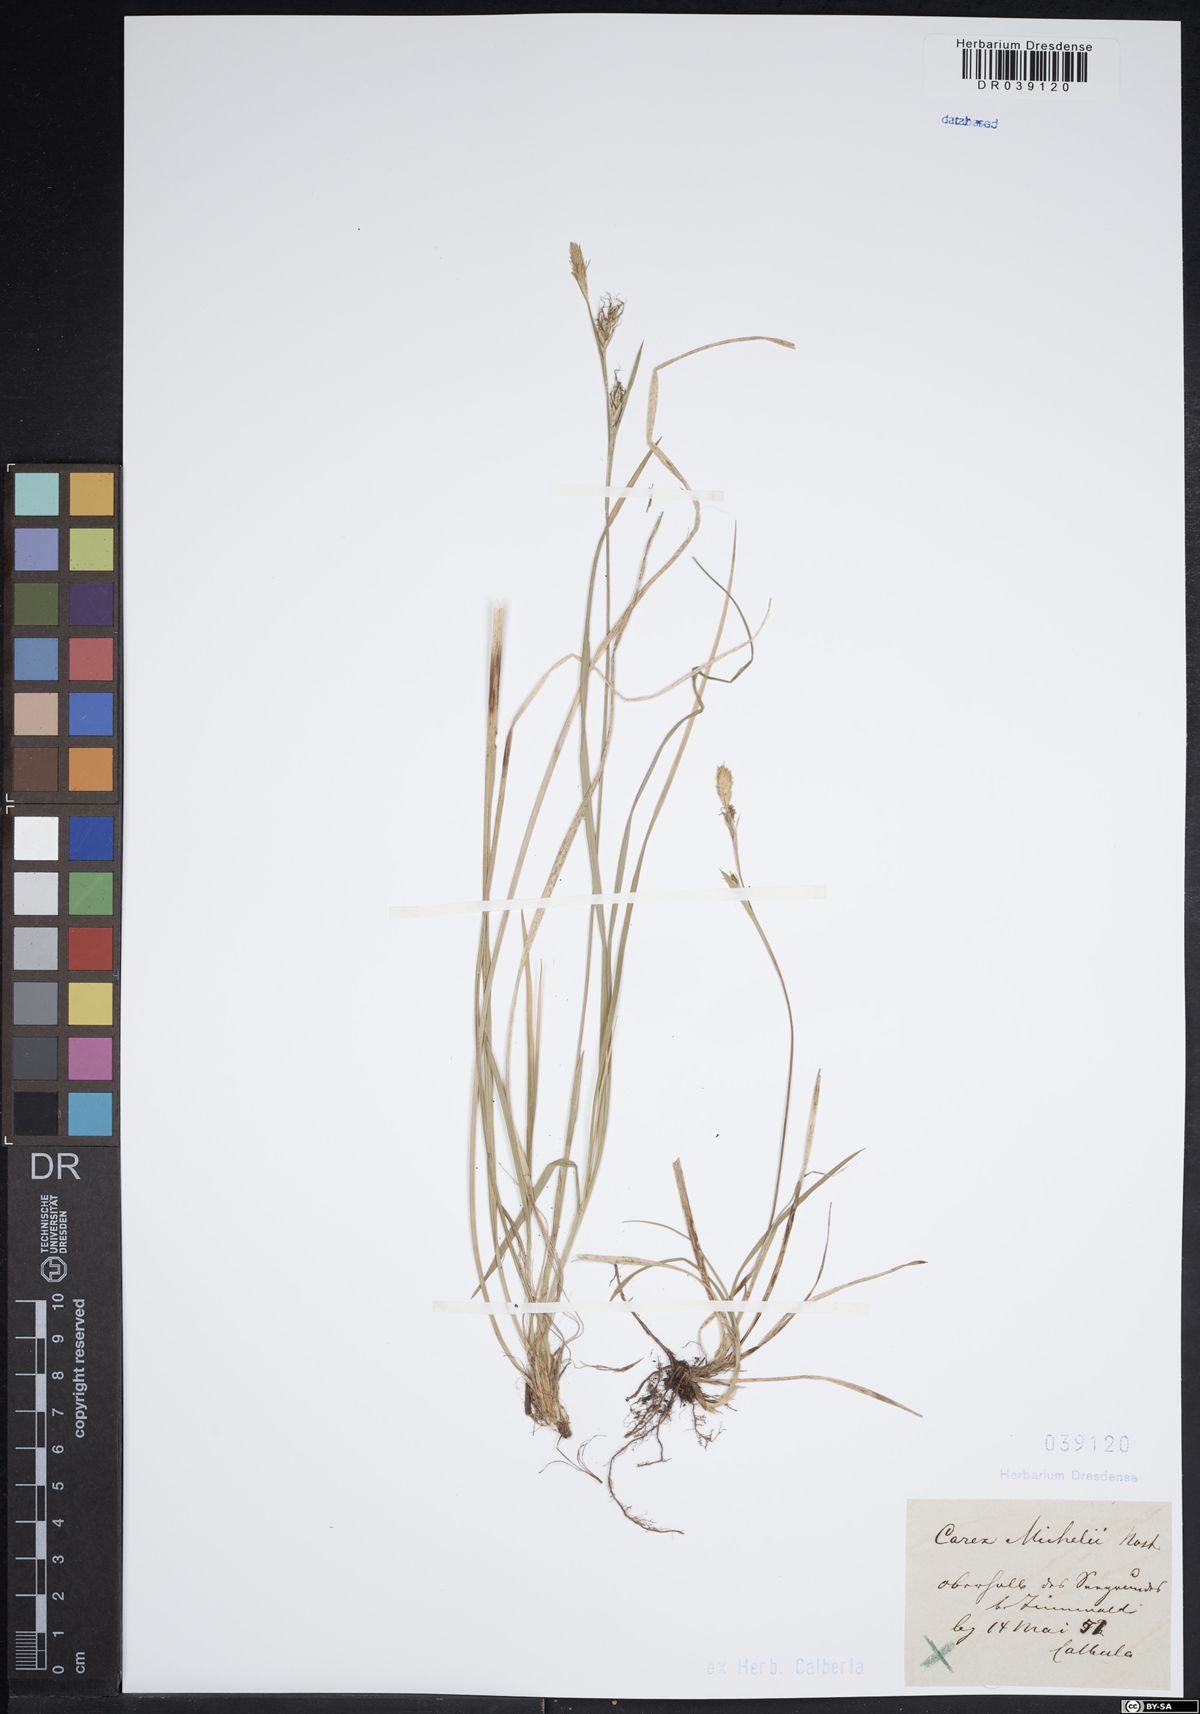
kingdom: Plantae
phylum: Tracheophyta
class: Liliopsida
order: Poales
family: Cyperaceae
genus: Carex
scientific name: Carex michelii
